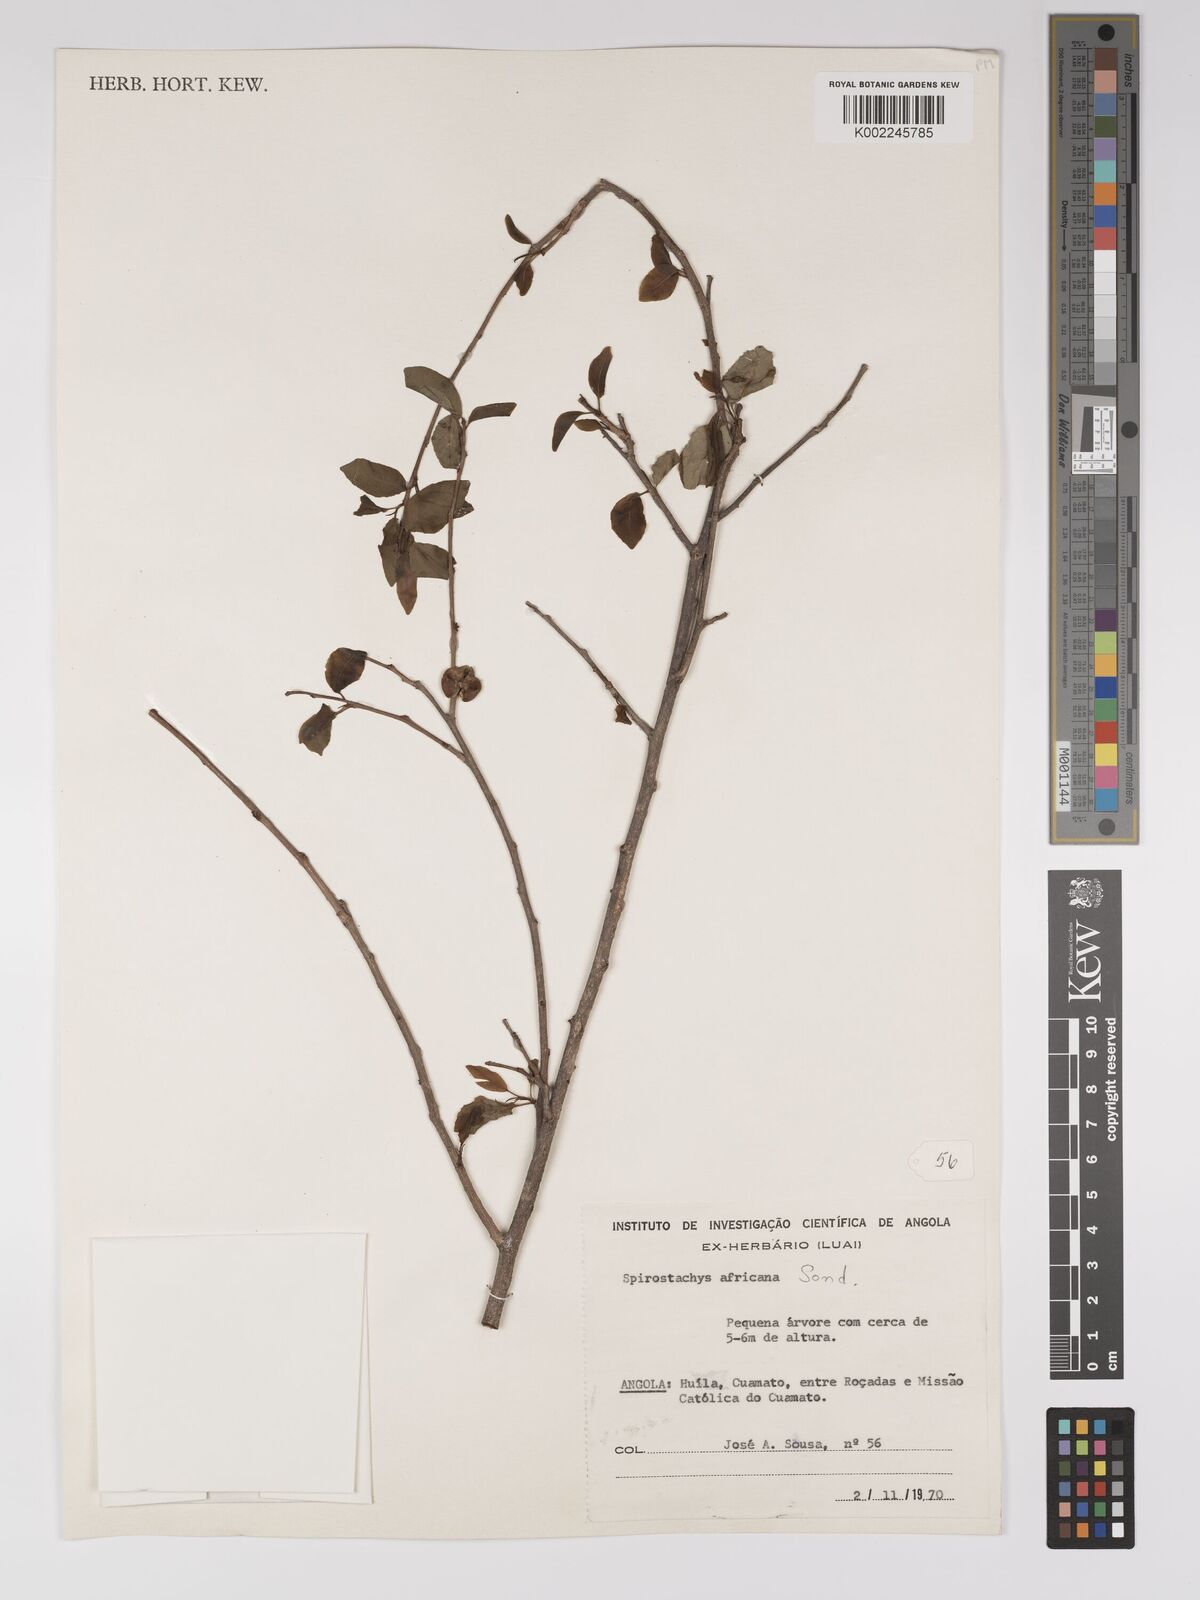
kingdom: Plantae
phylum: Tracheophyta
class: Magnoliopsida
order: Malpighiales
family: Euphorbiaceae
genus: Spirostachys
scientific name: Spirostachys africana
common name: Tamboti
